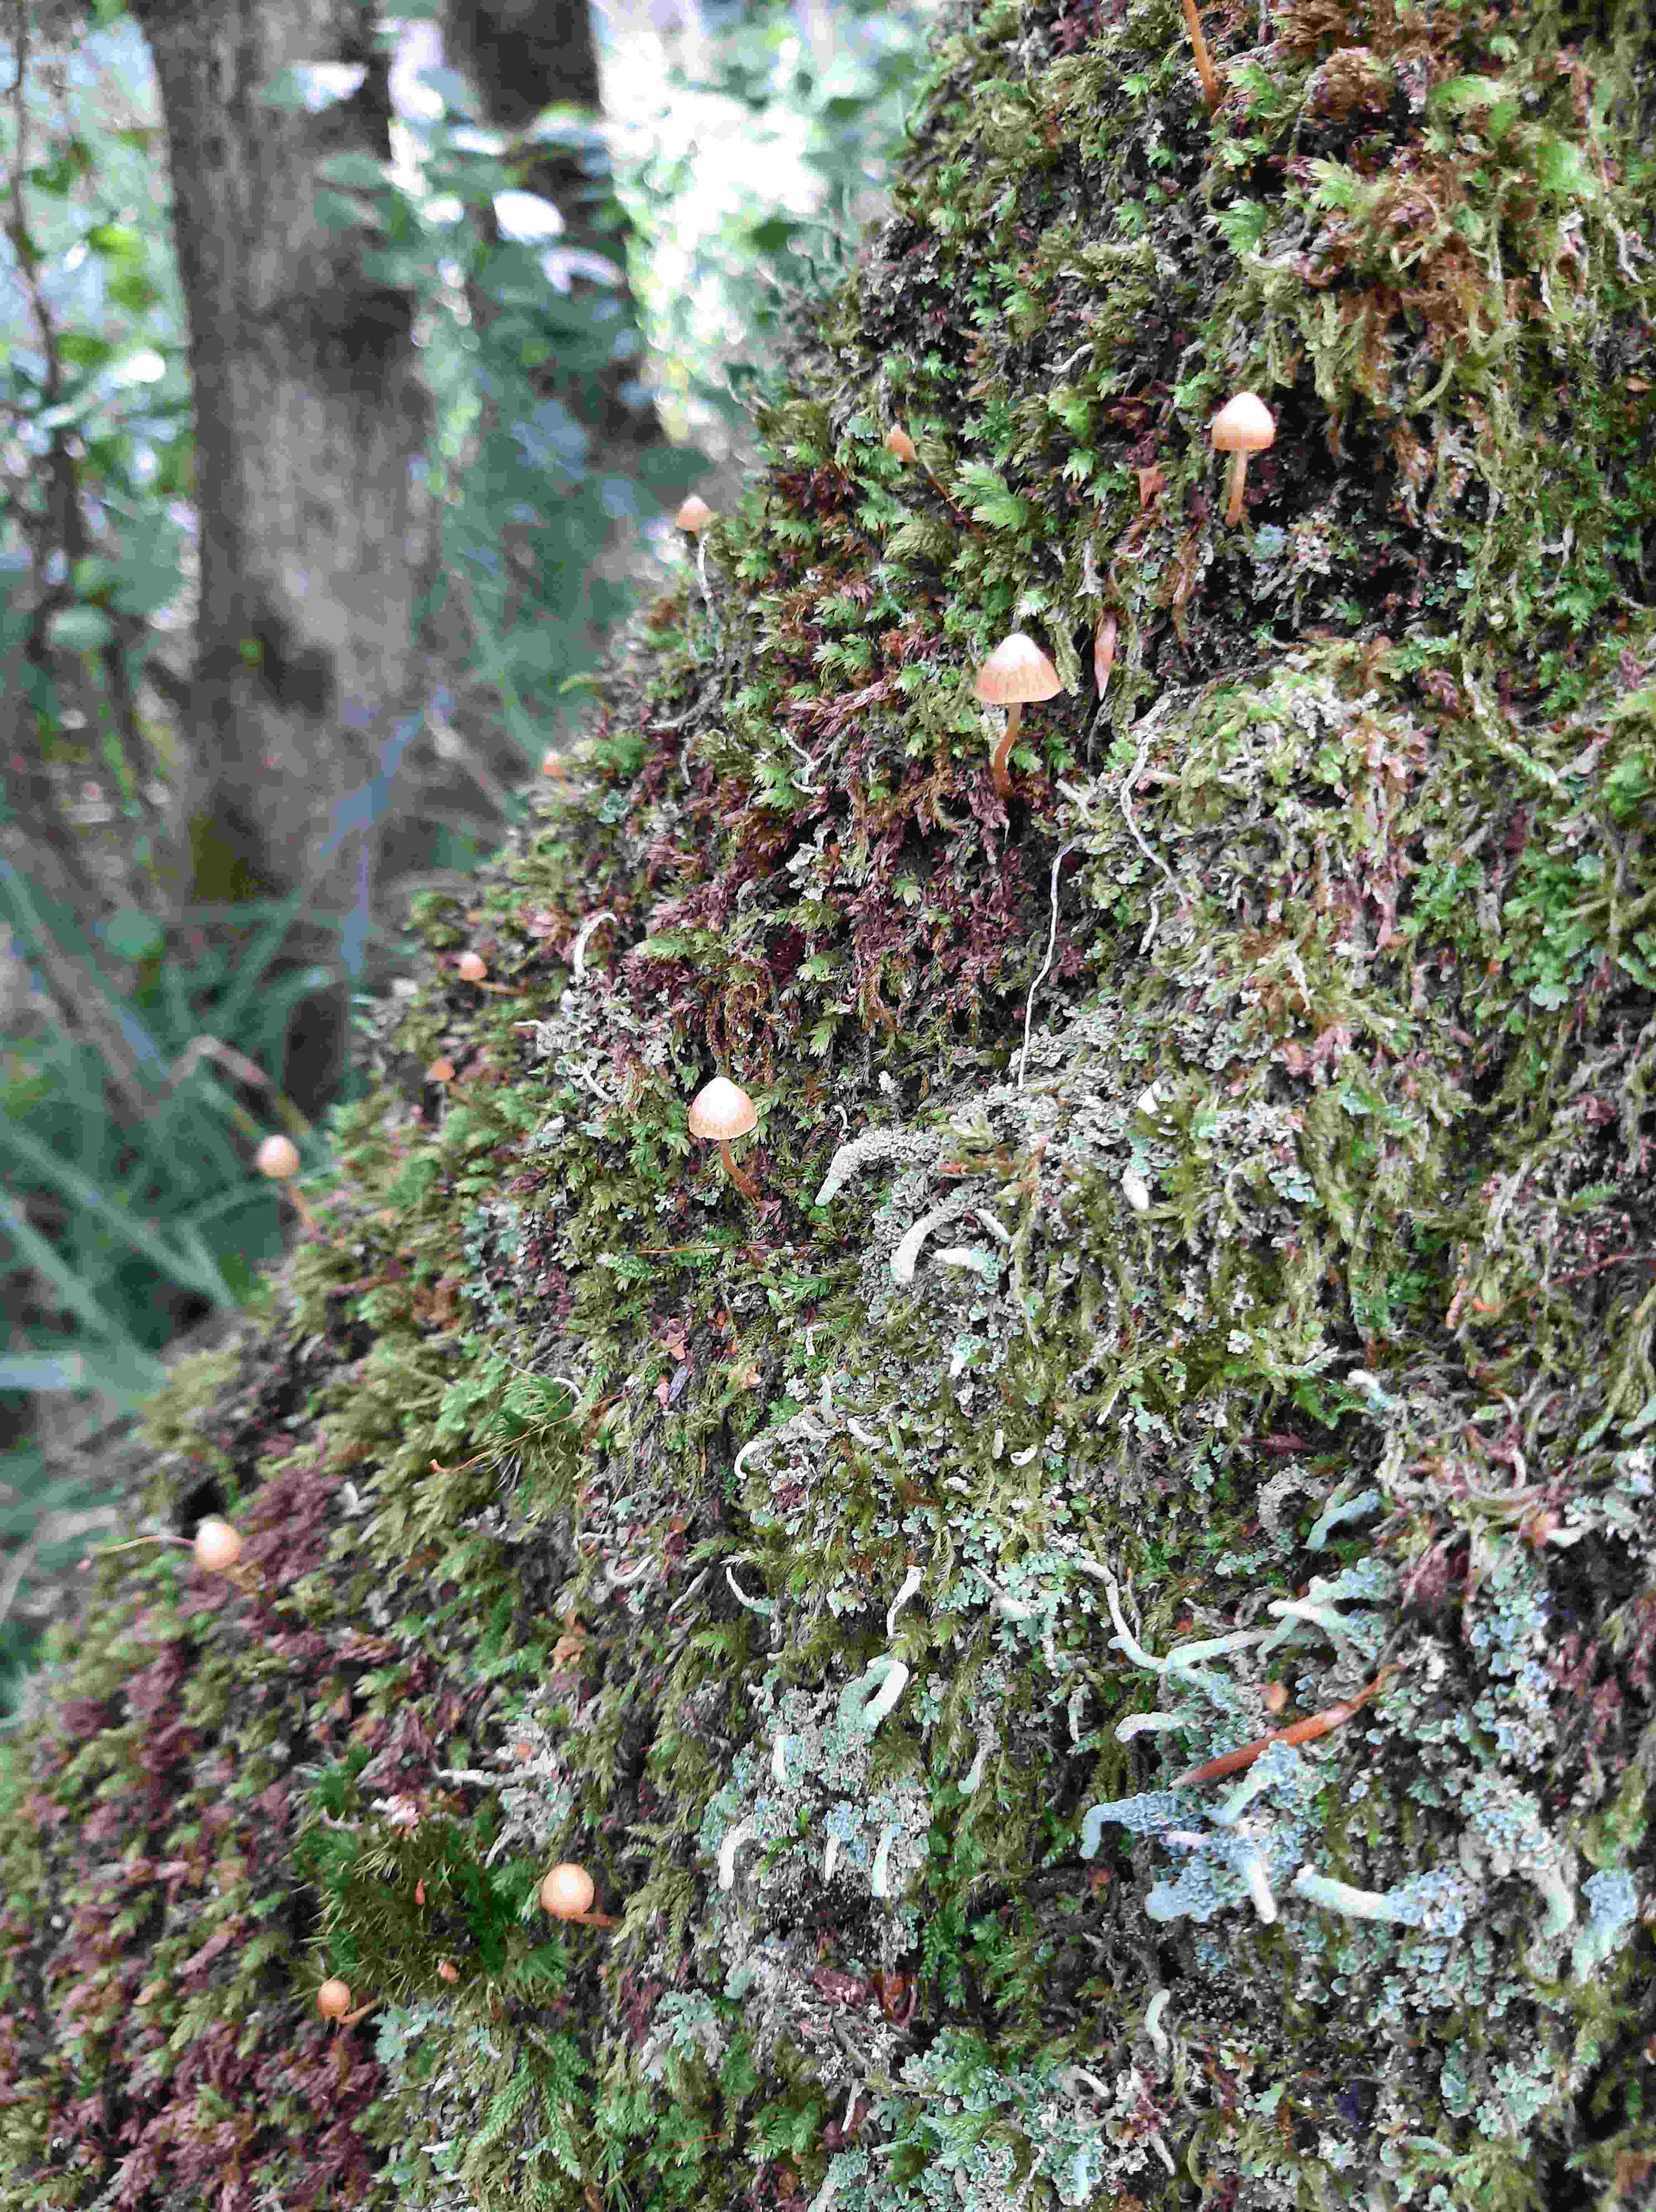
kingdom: Fungi
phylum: Basidiomycota
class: Agaricomycetes
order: Agaricales
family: Hymenogastraceae
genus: Galerina
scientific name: Galerina
